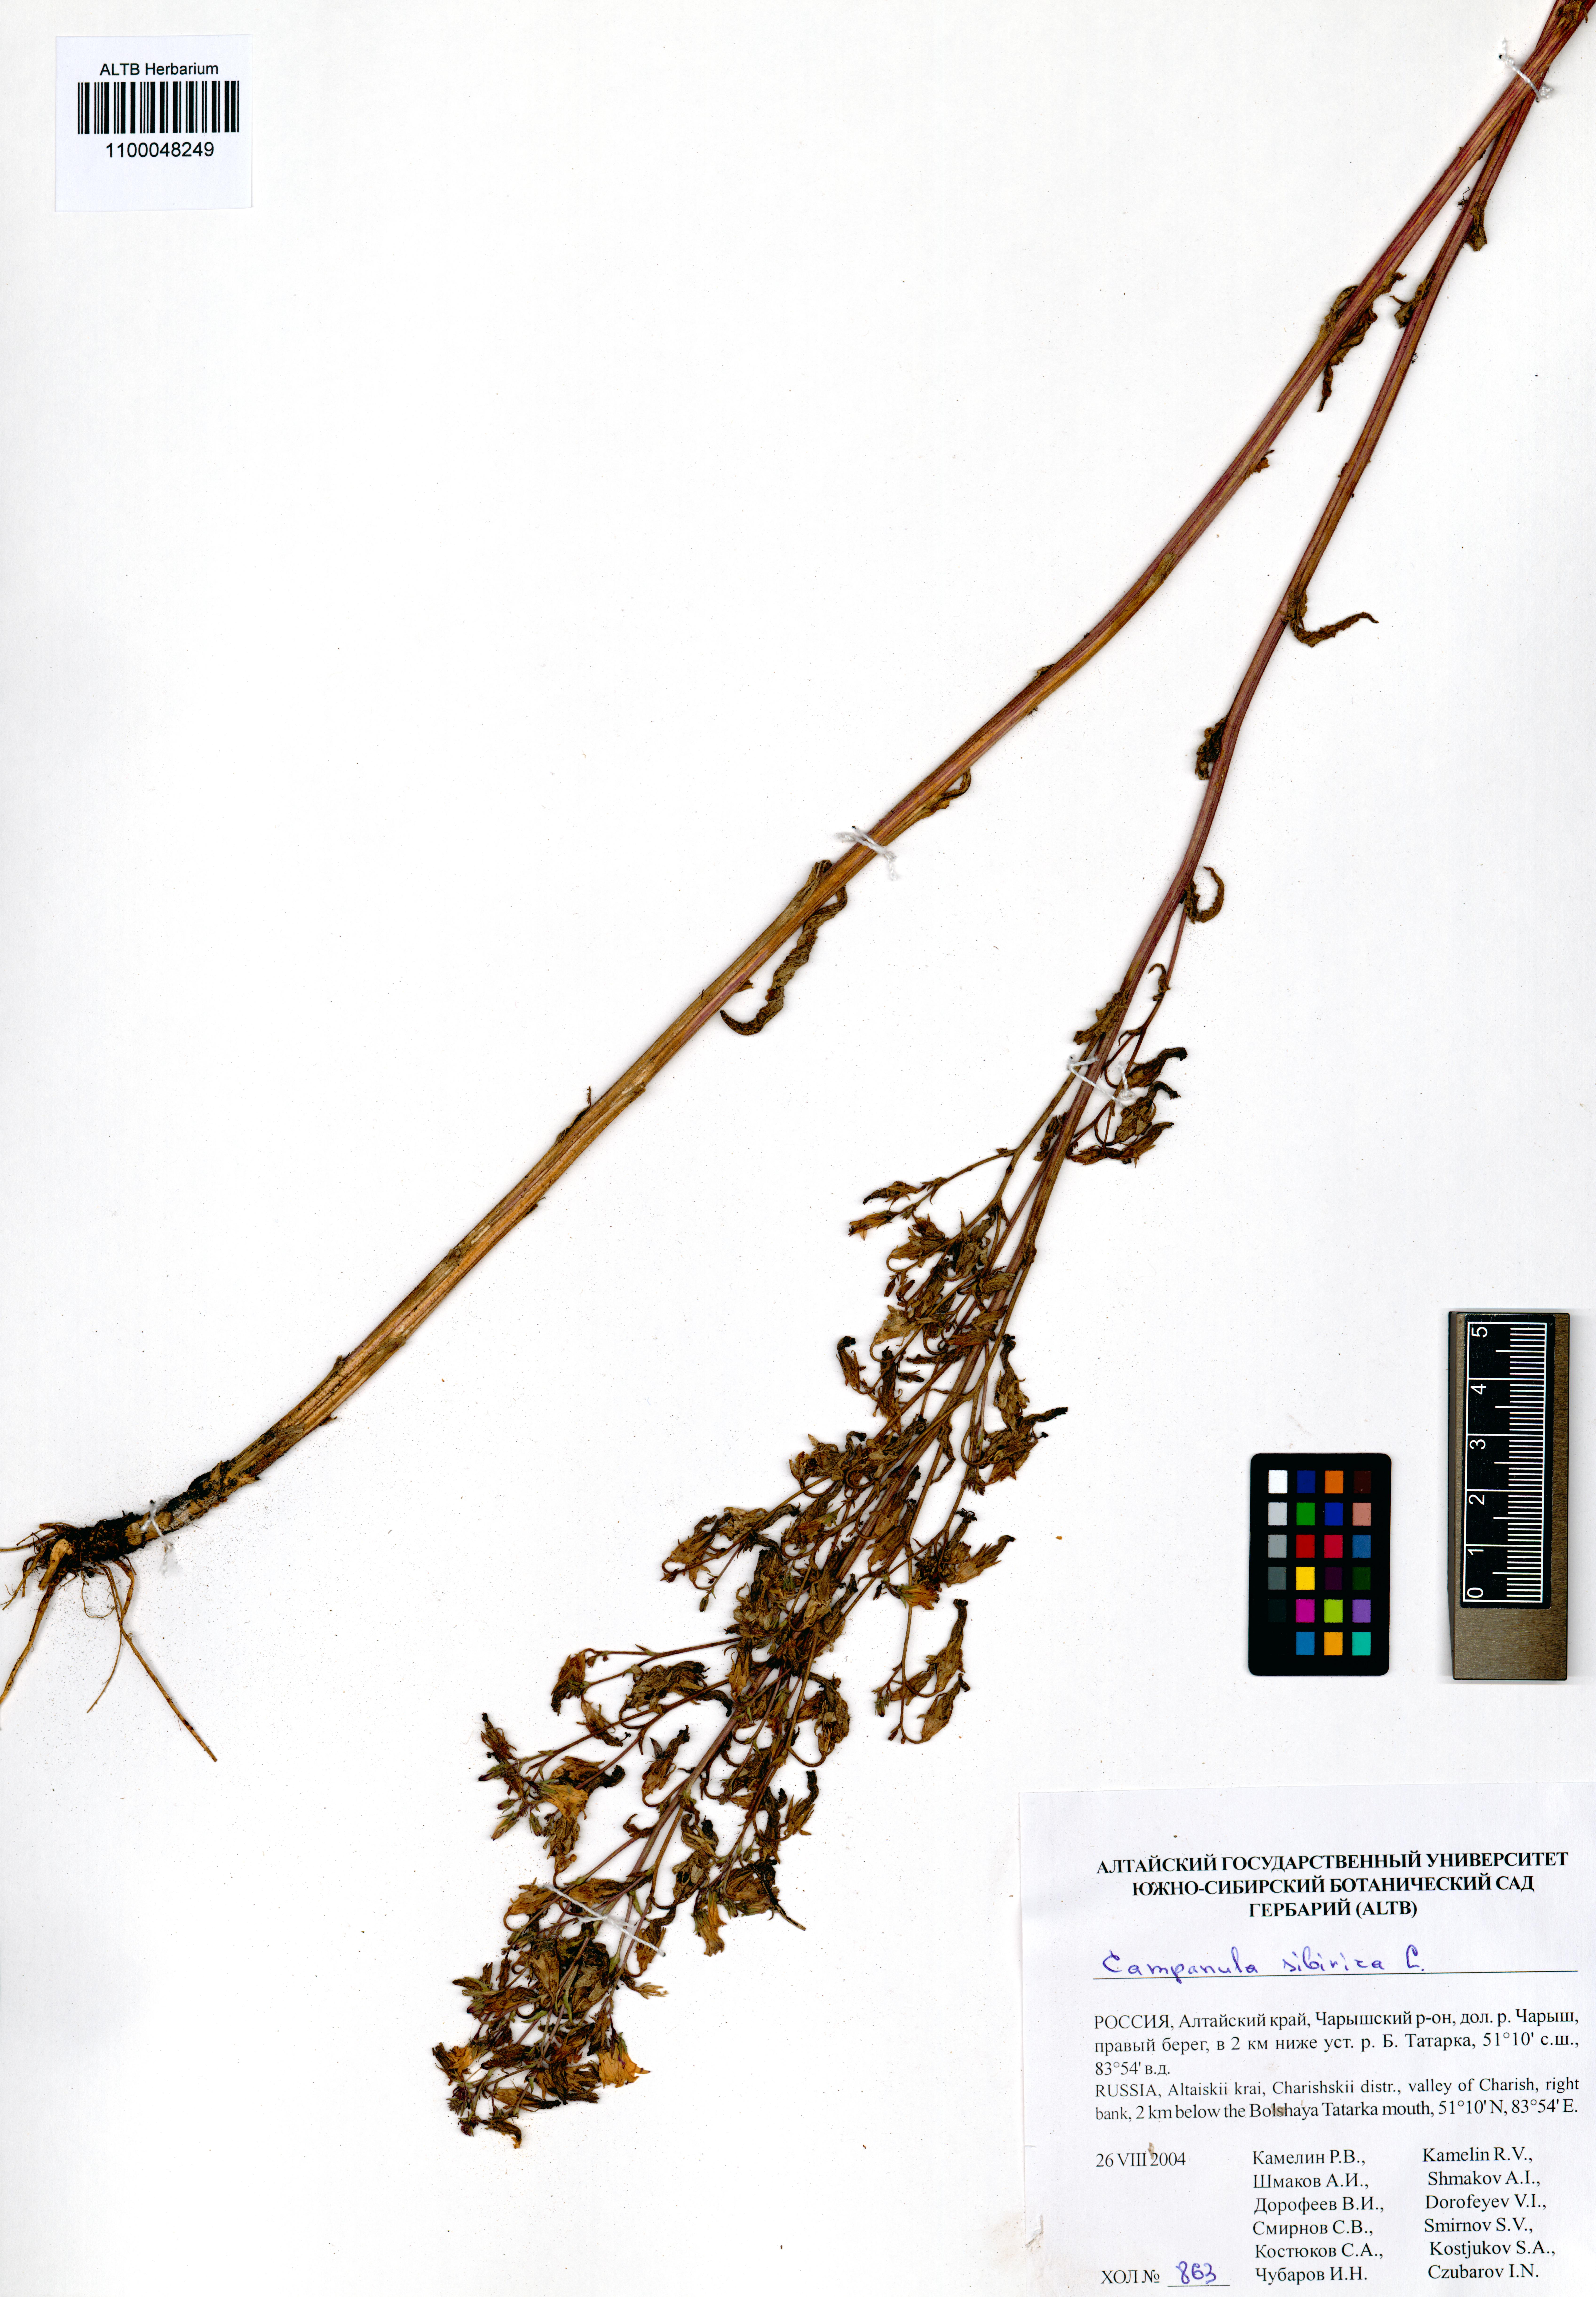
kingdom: Plantae
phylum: Tracheophyta
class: Magnoliopsida
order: Asterales
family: Campanulaceae
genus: Campanula
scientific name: Campanula sibirica
